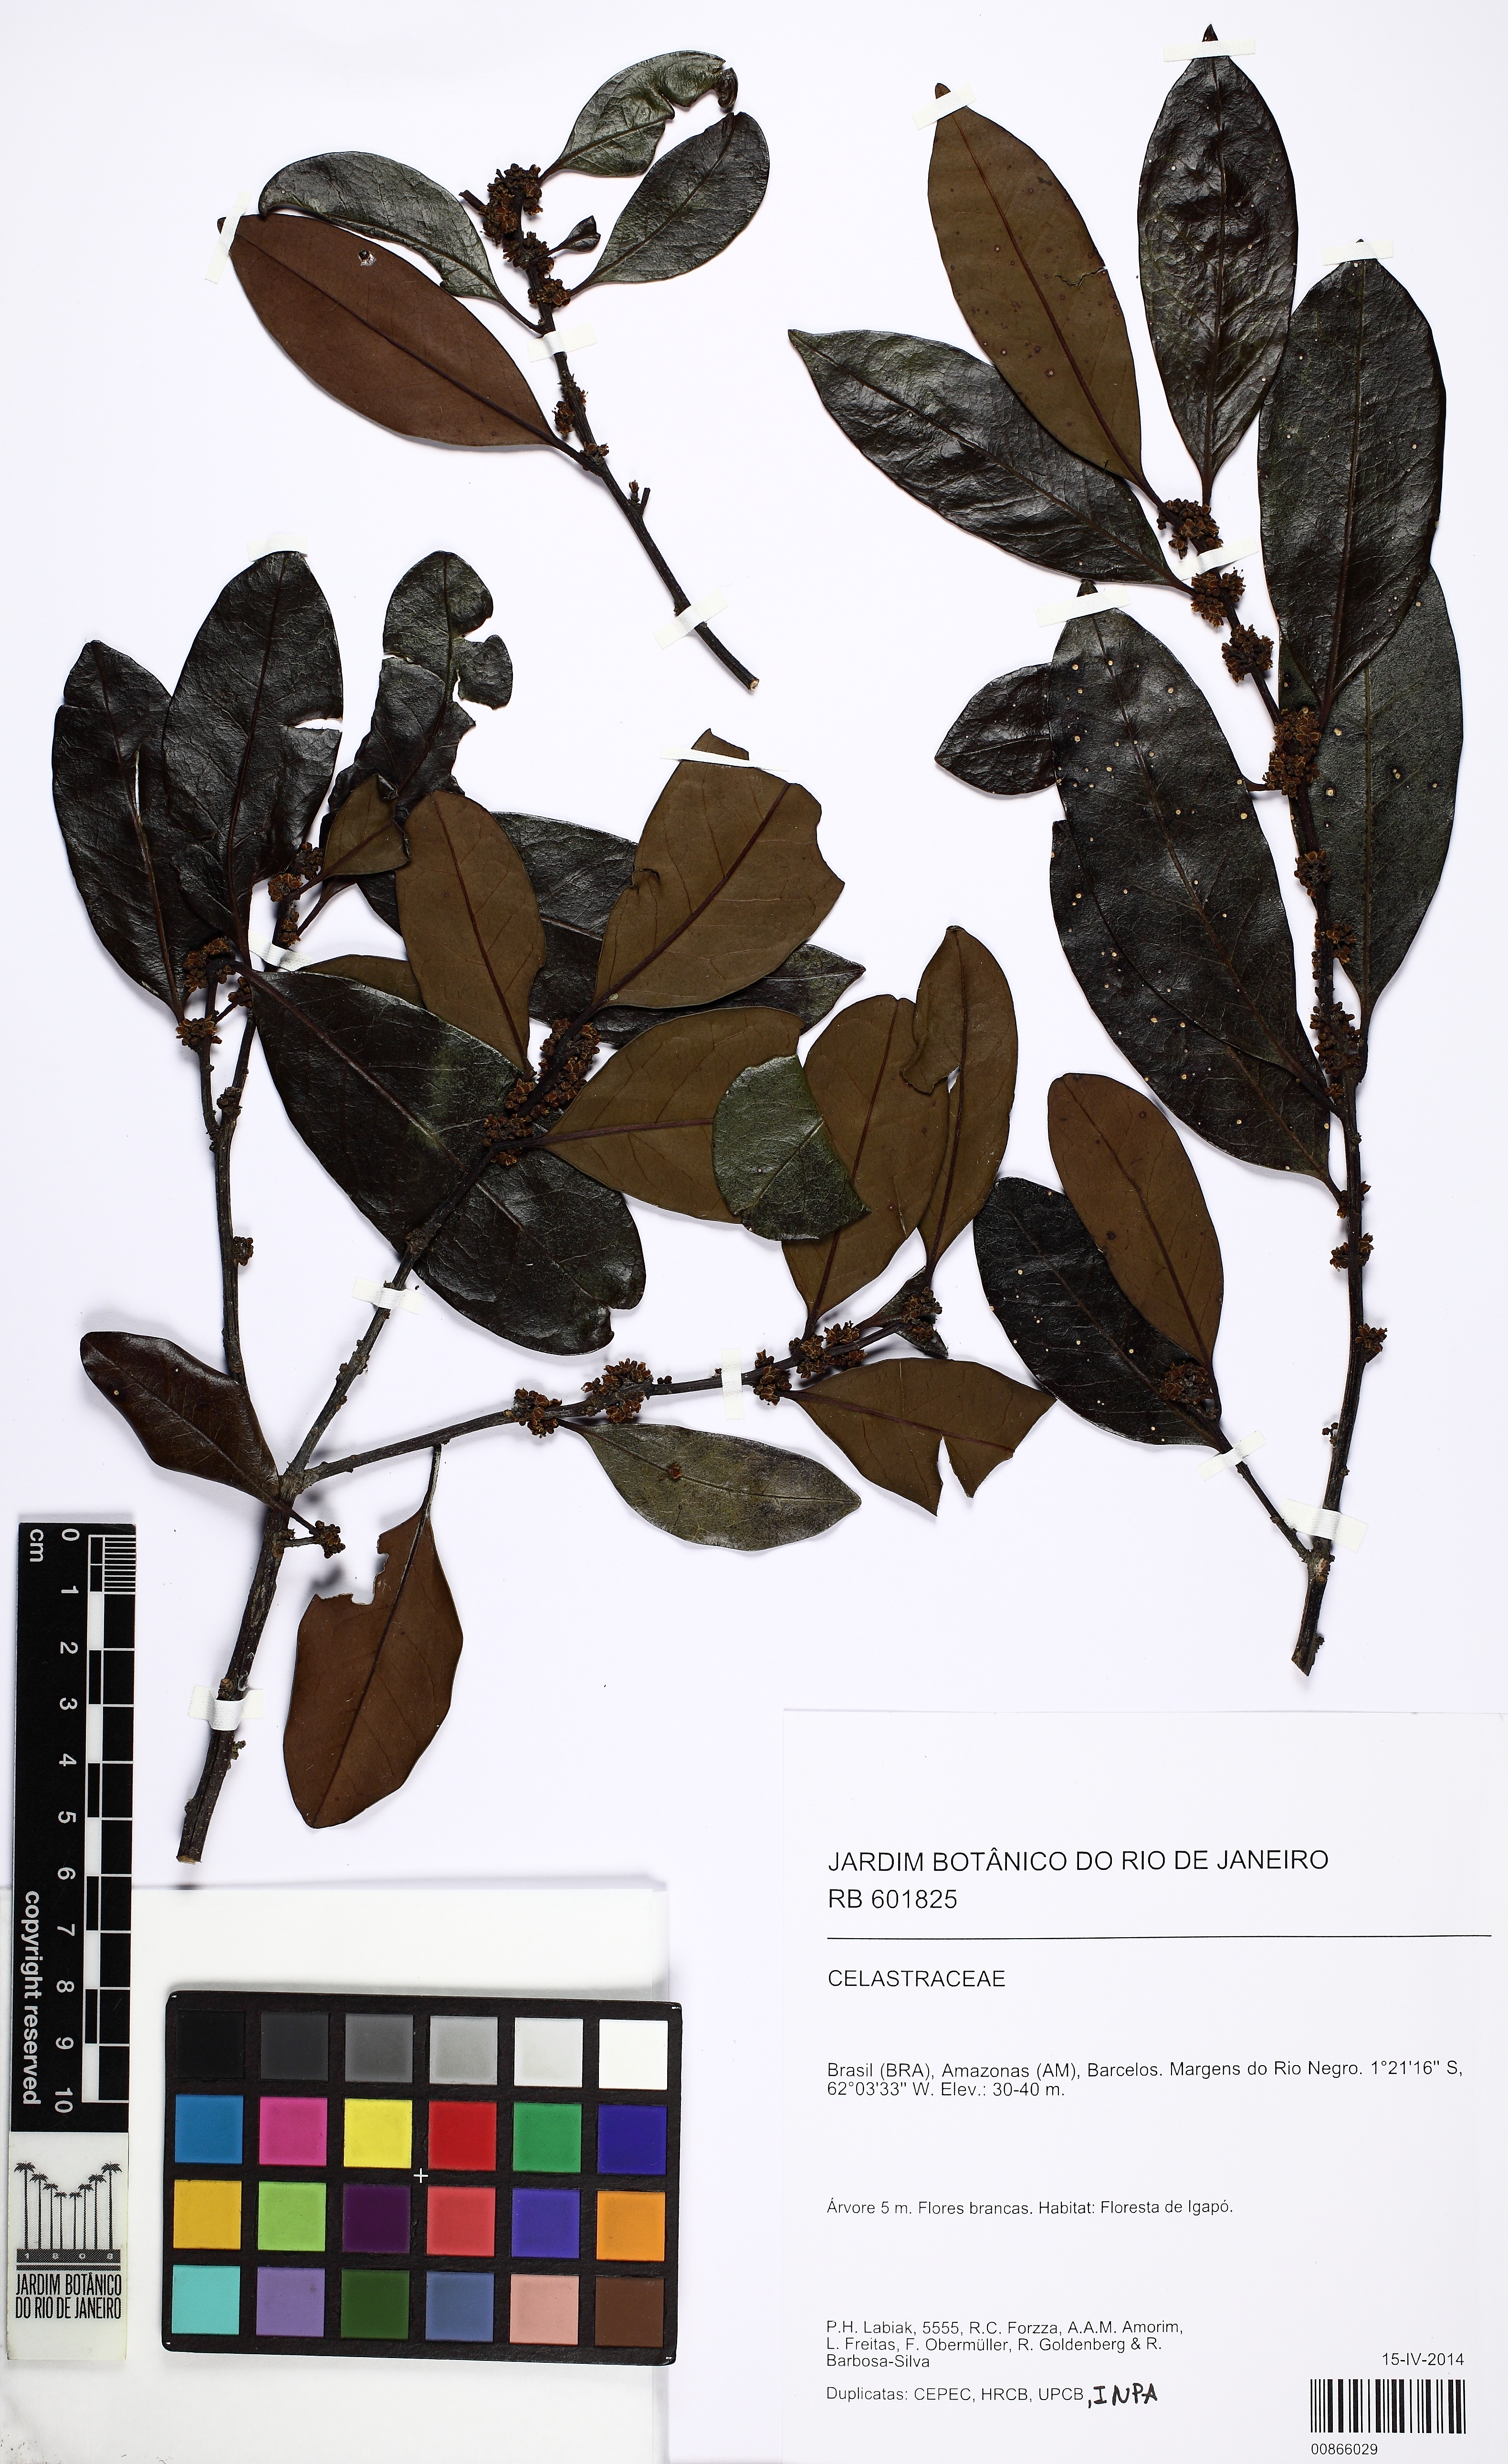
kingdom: Plantae
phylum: Tracheophyta
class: Magnoliopsida
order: Celastrales
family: Celastraceae
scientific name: Celastraceae
